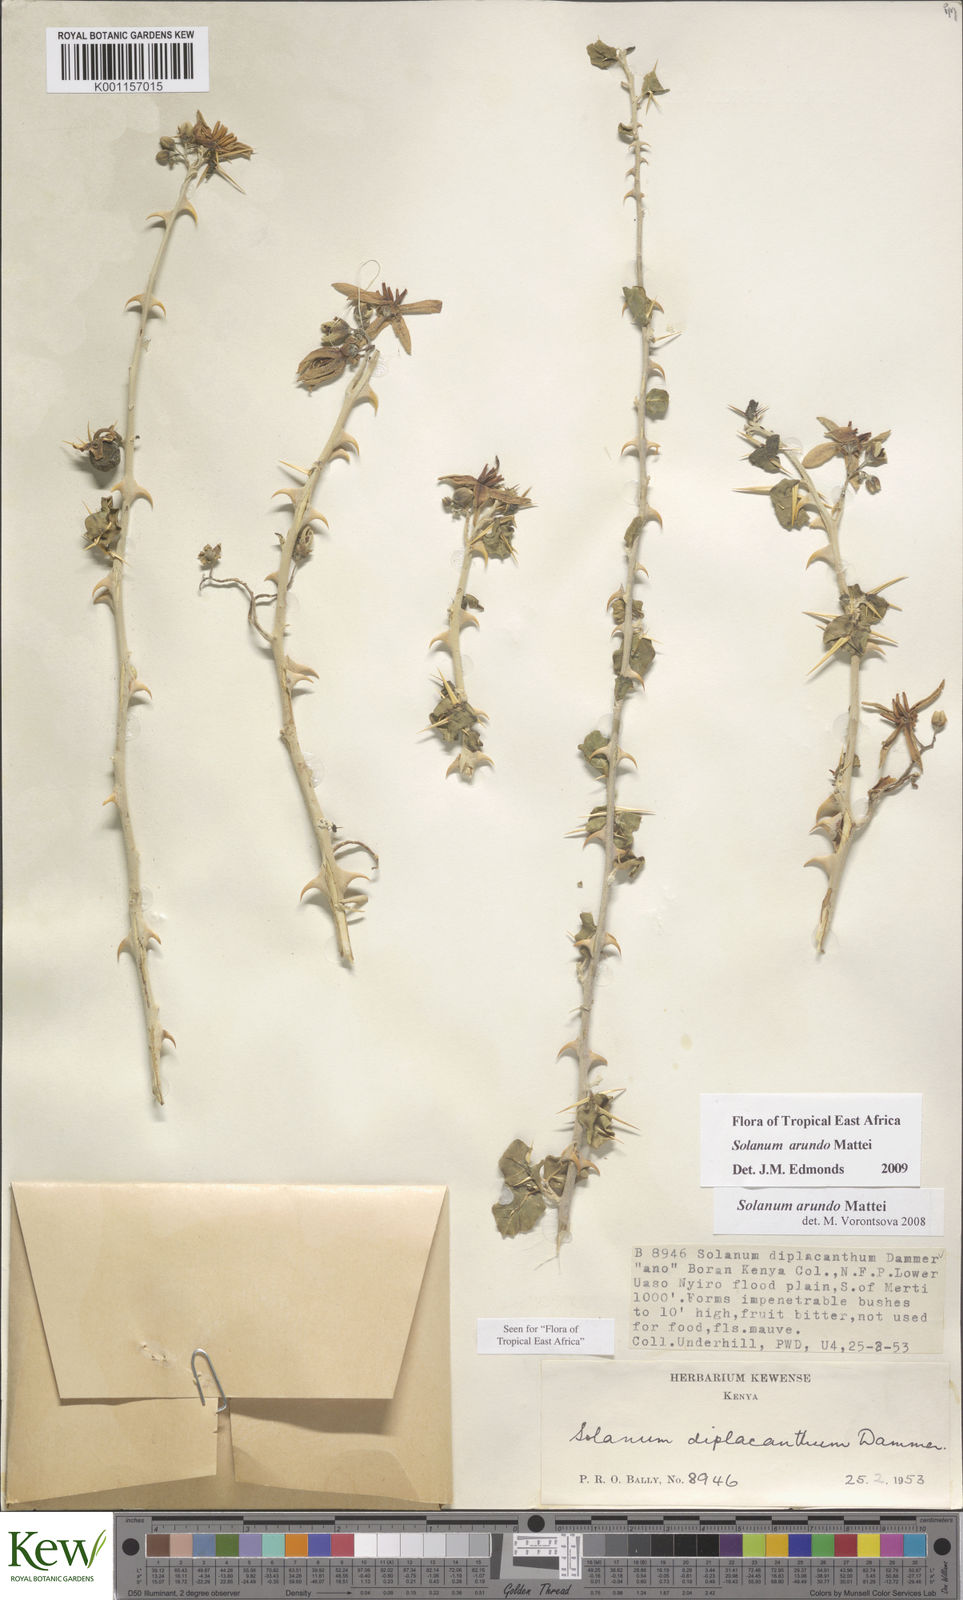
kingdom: Plantae
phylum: Tracheophyta
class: Magnoliopsida
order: Solanales
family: Solanaceae
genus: Solanum
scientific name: Solanum arundo
